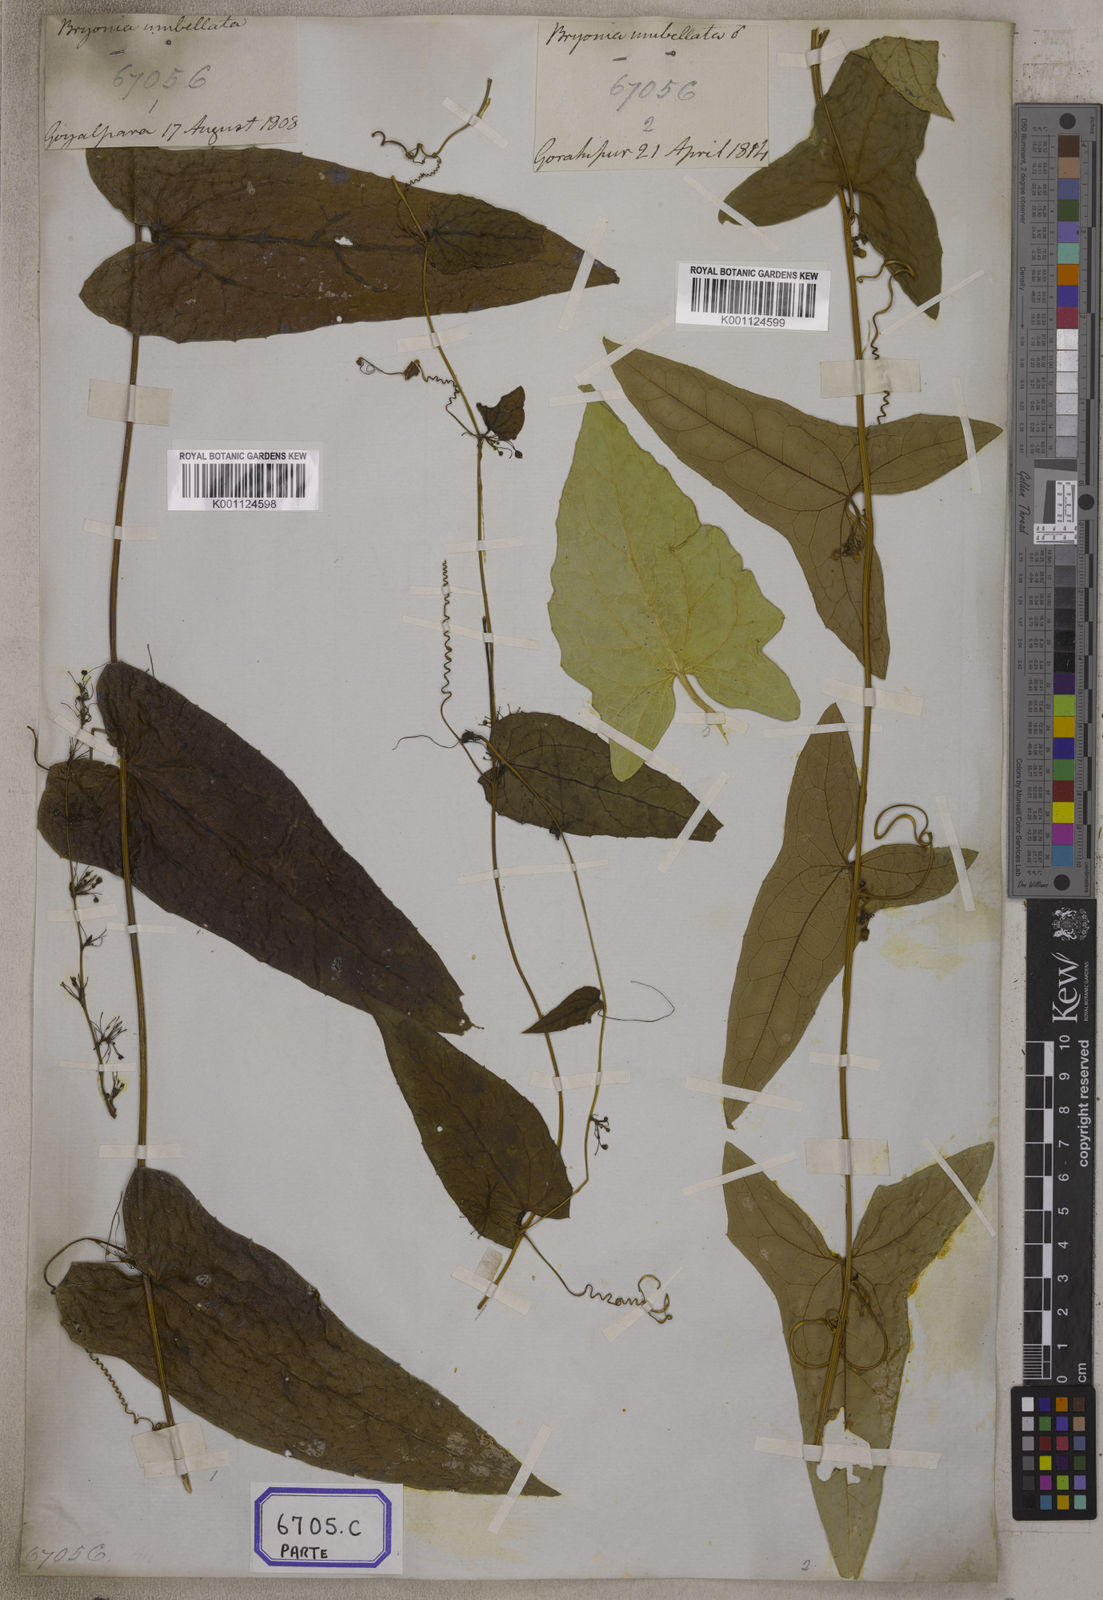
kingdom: Plantae
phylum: Tracheophyta
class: Magnoliopsida
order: Cucurbitales
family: Cucurbitaceae
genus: Bryonia
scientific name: Bryonia
